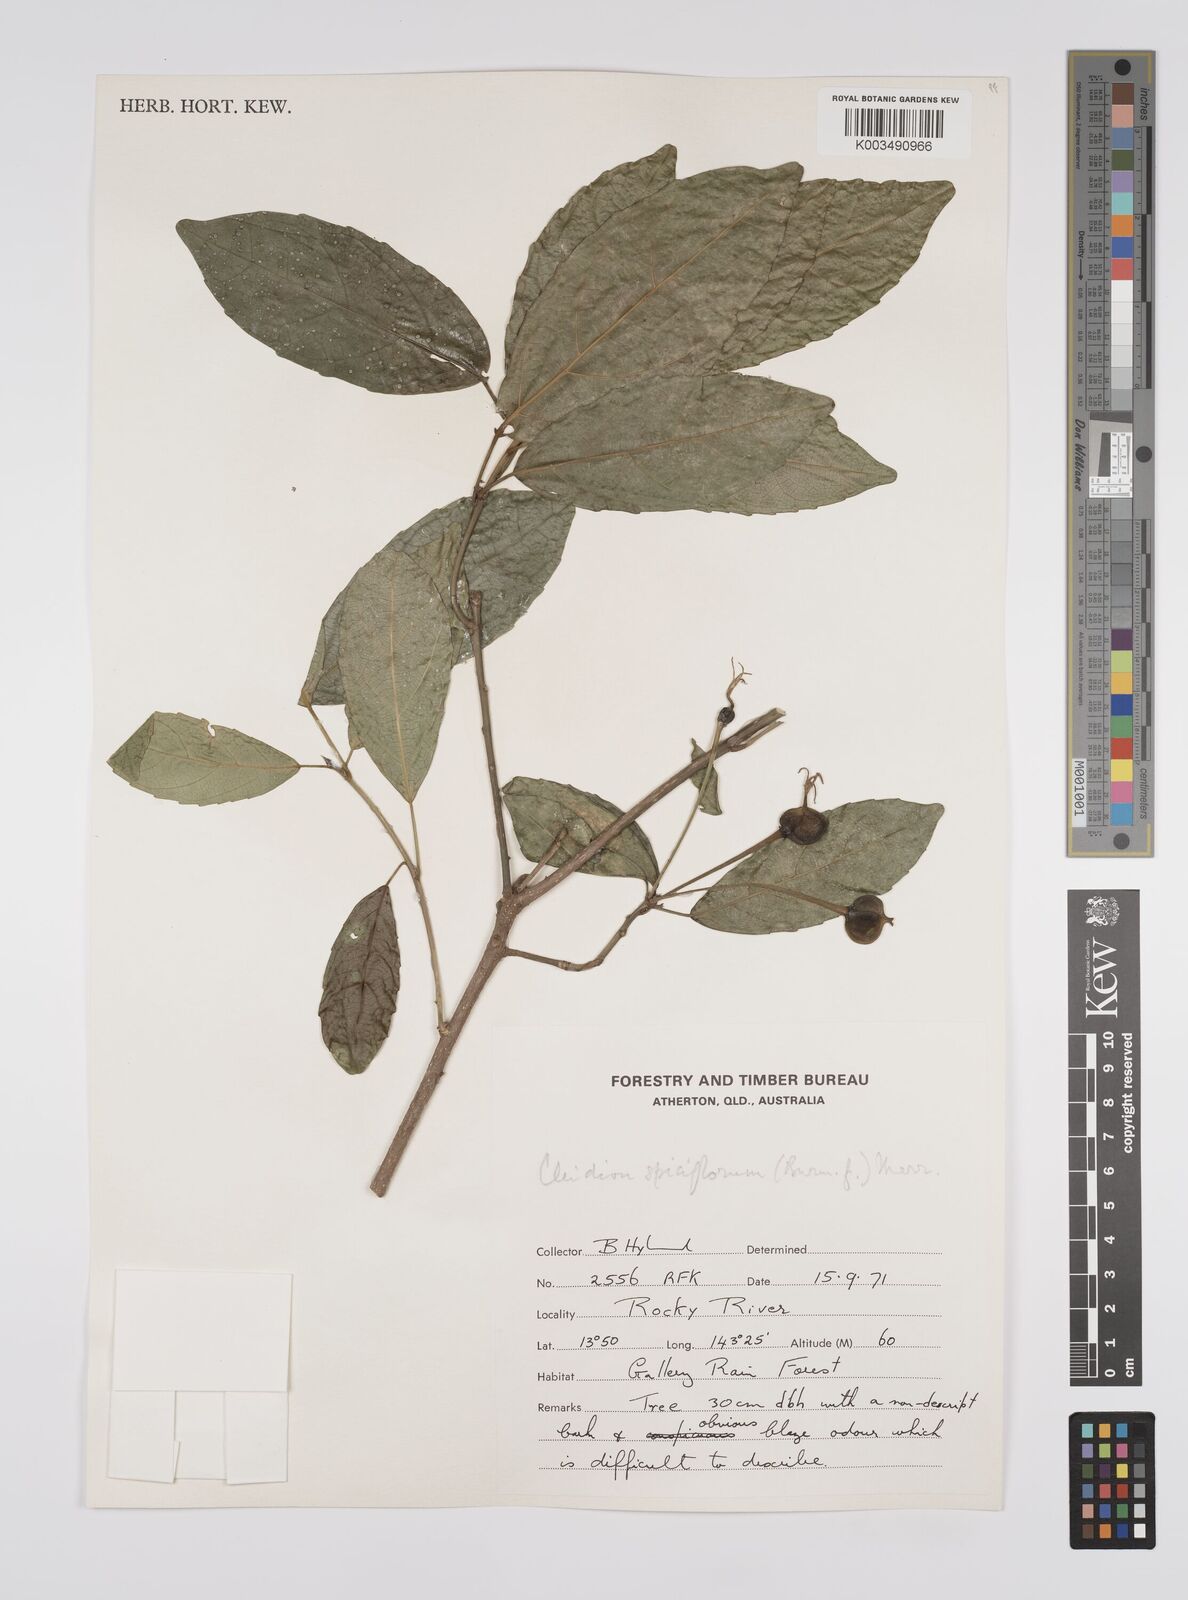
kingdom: Plantae
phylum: Tracheophyta
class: Magnoliopsida
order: Malpighiales
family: Euphorbiaceae
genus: Cleidion
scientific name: Cleidion javanicum
